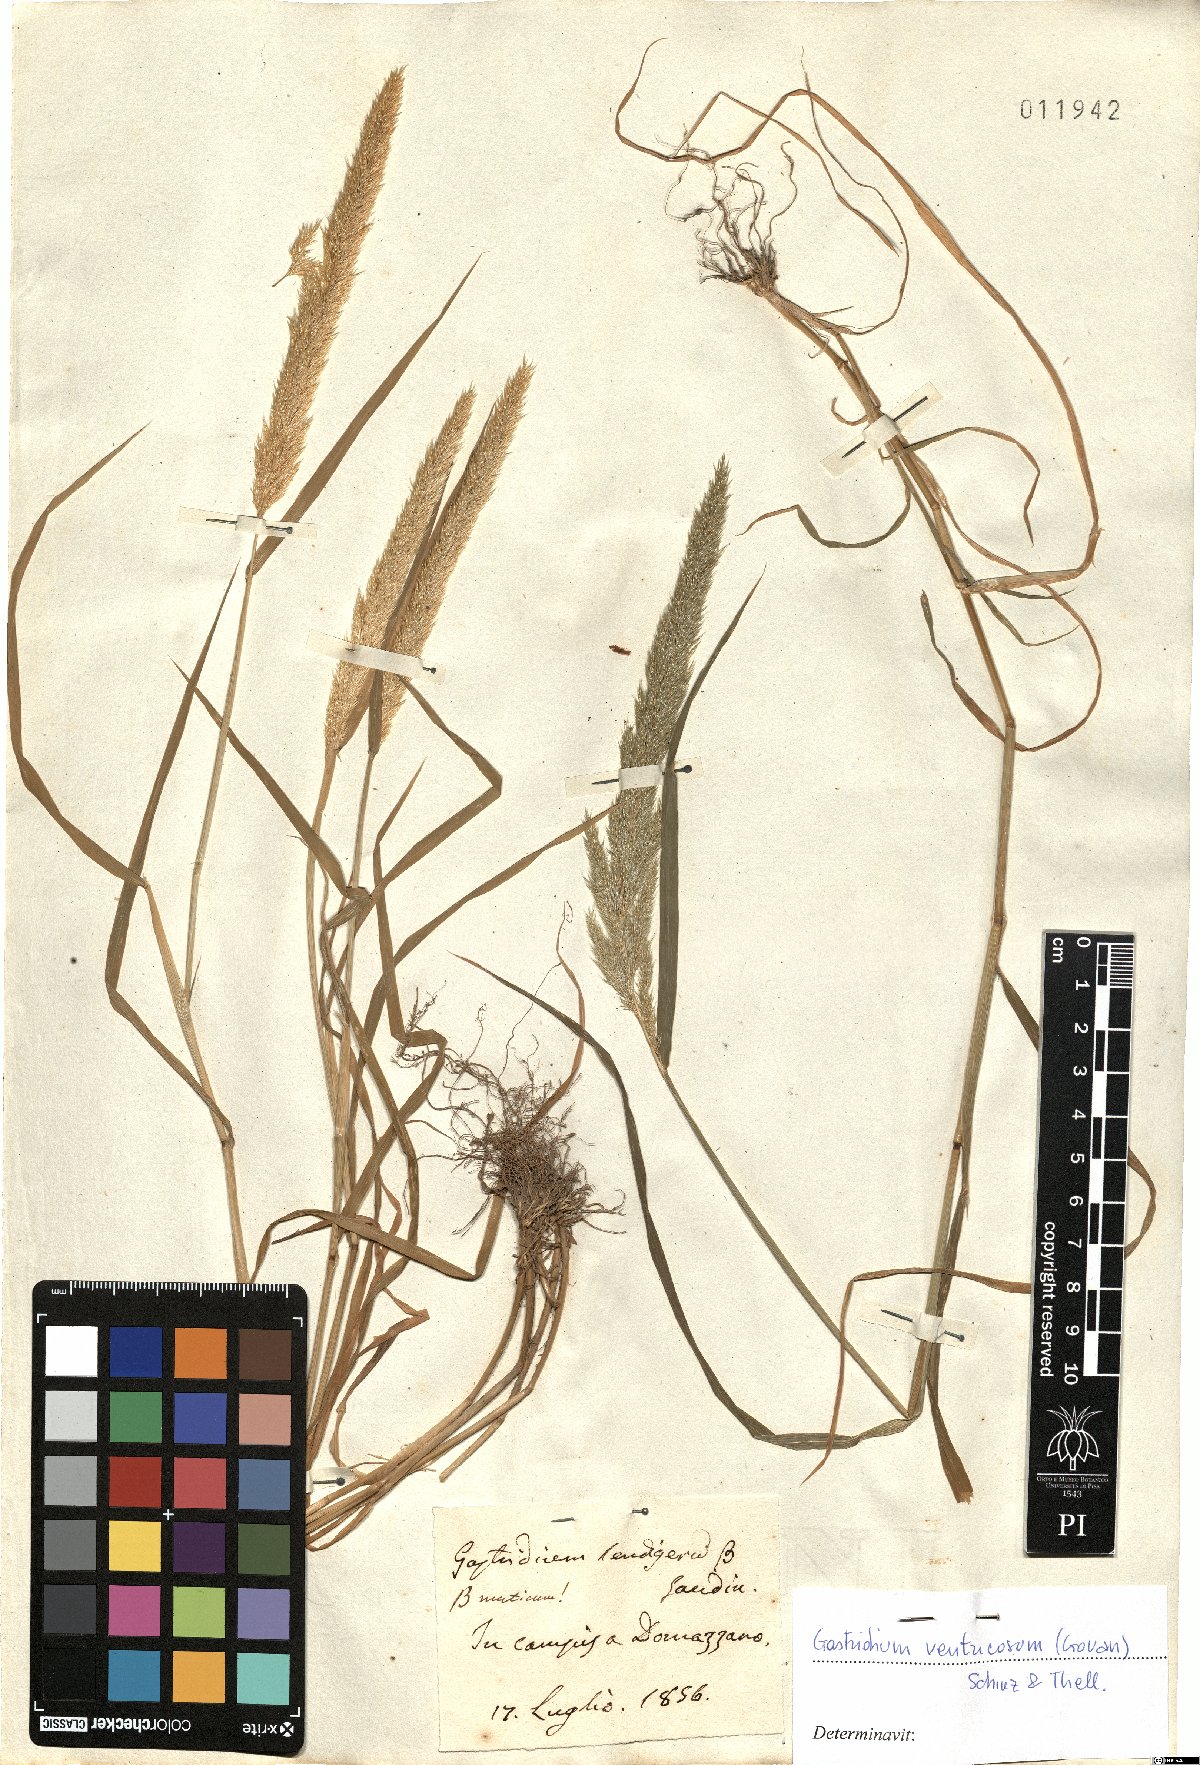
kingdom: Plantae
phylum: Tracheophyta
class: Liliopsida
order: Poales
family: Poaceae
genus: Gastridium
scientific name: Gastridium ventricosum
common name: Nit-grass
